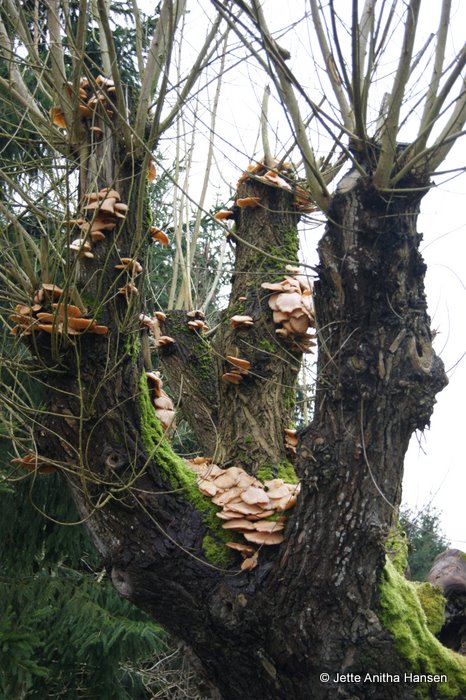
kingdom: Fungi
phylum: Basidiomycota
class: Agaricomycetes
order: Agaricales
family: Physalacriaceae
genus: Flammulina
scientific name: Flammulina elastica
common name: pile-fløjlsfod
